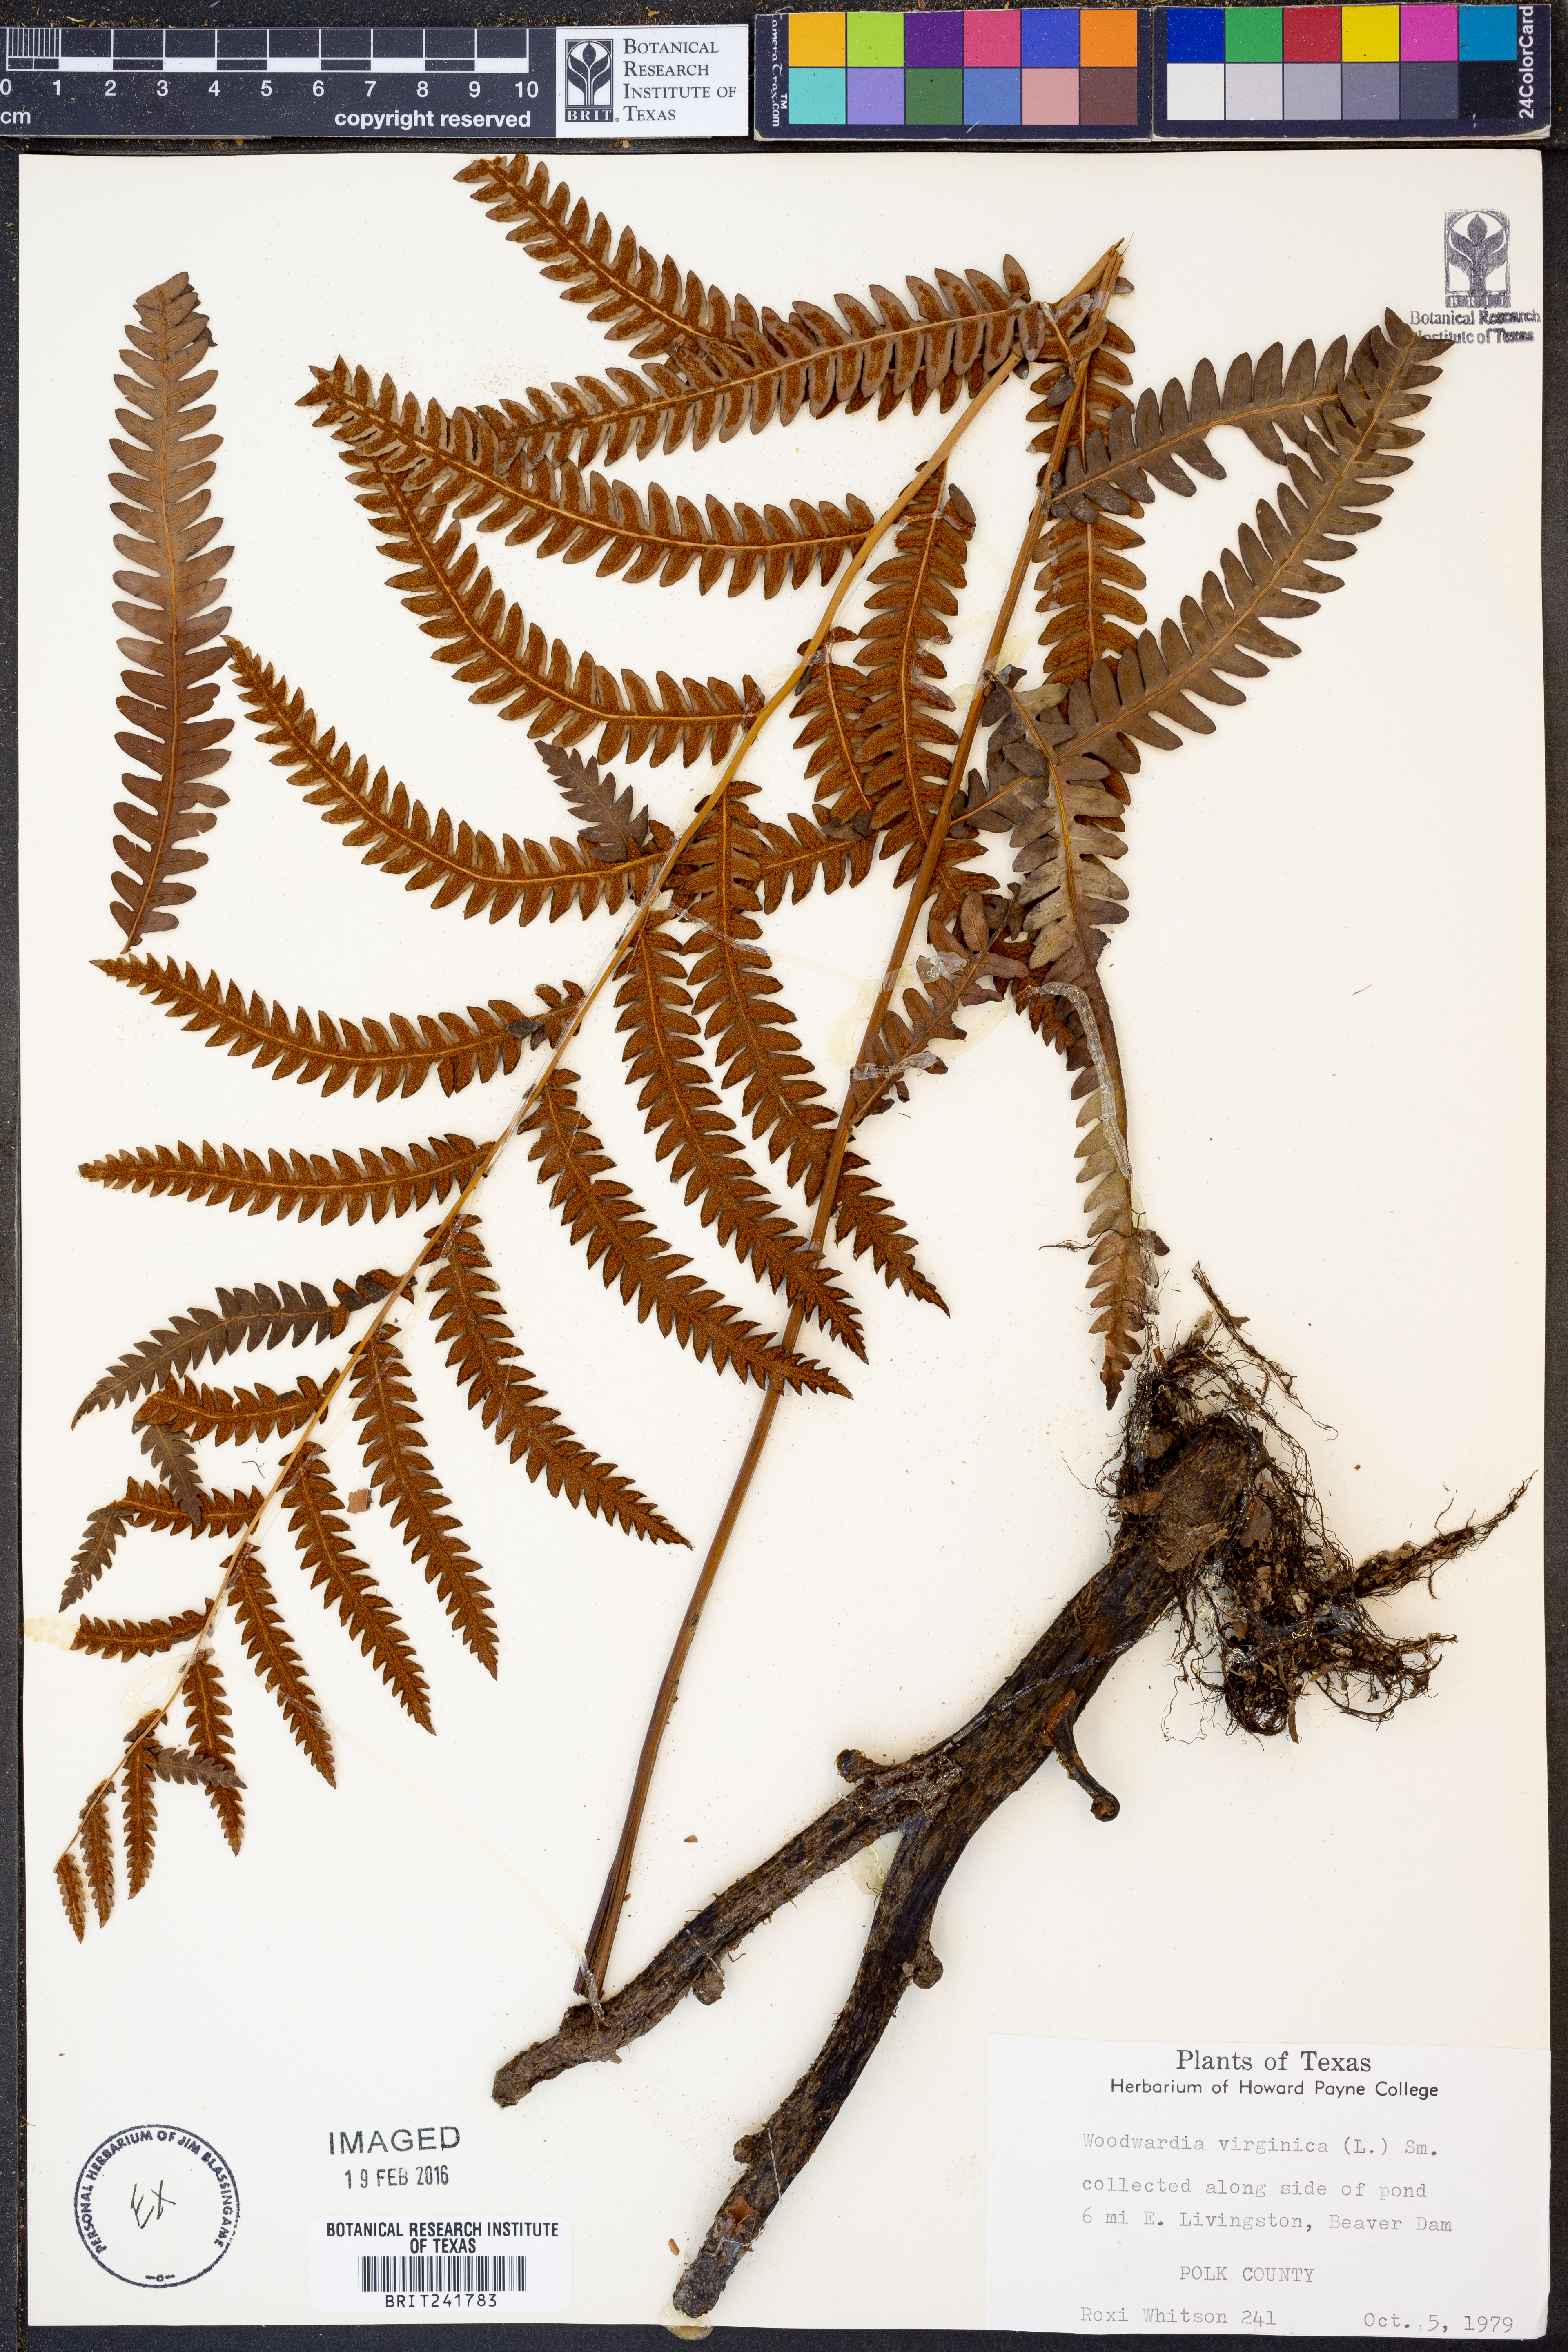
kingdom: Plantae
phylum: Tracheophyta
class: Polypodiopsida
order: Polypodiales
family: Blechnaceae
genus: Anchistea
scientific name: Anchistea virginica
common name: Virginia chain fern
